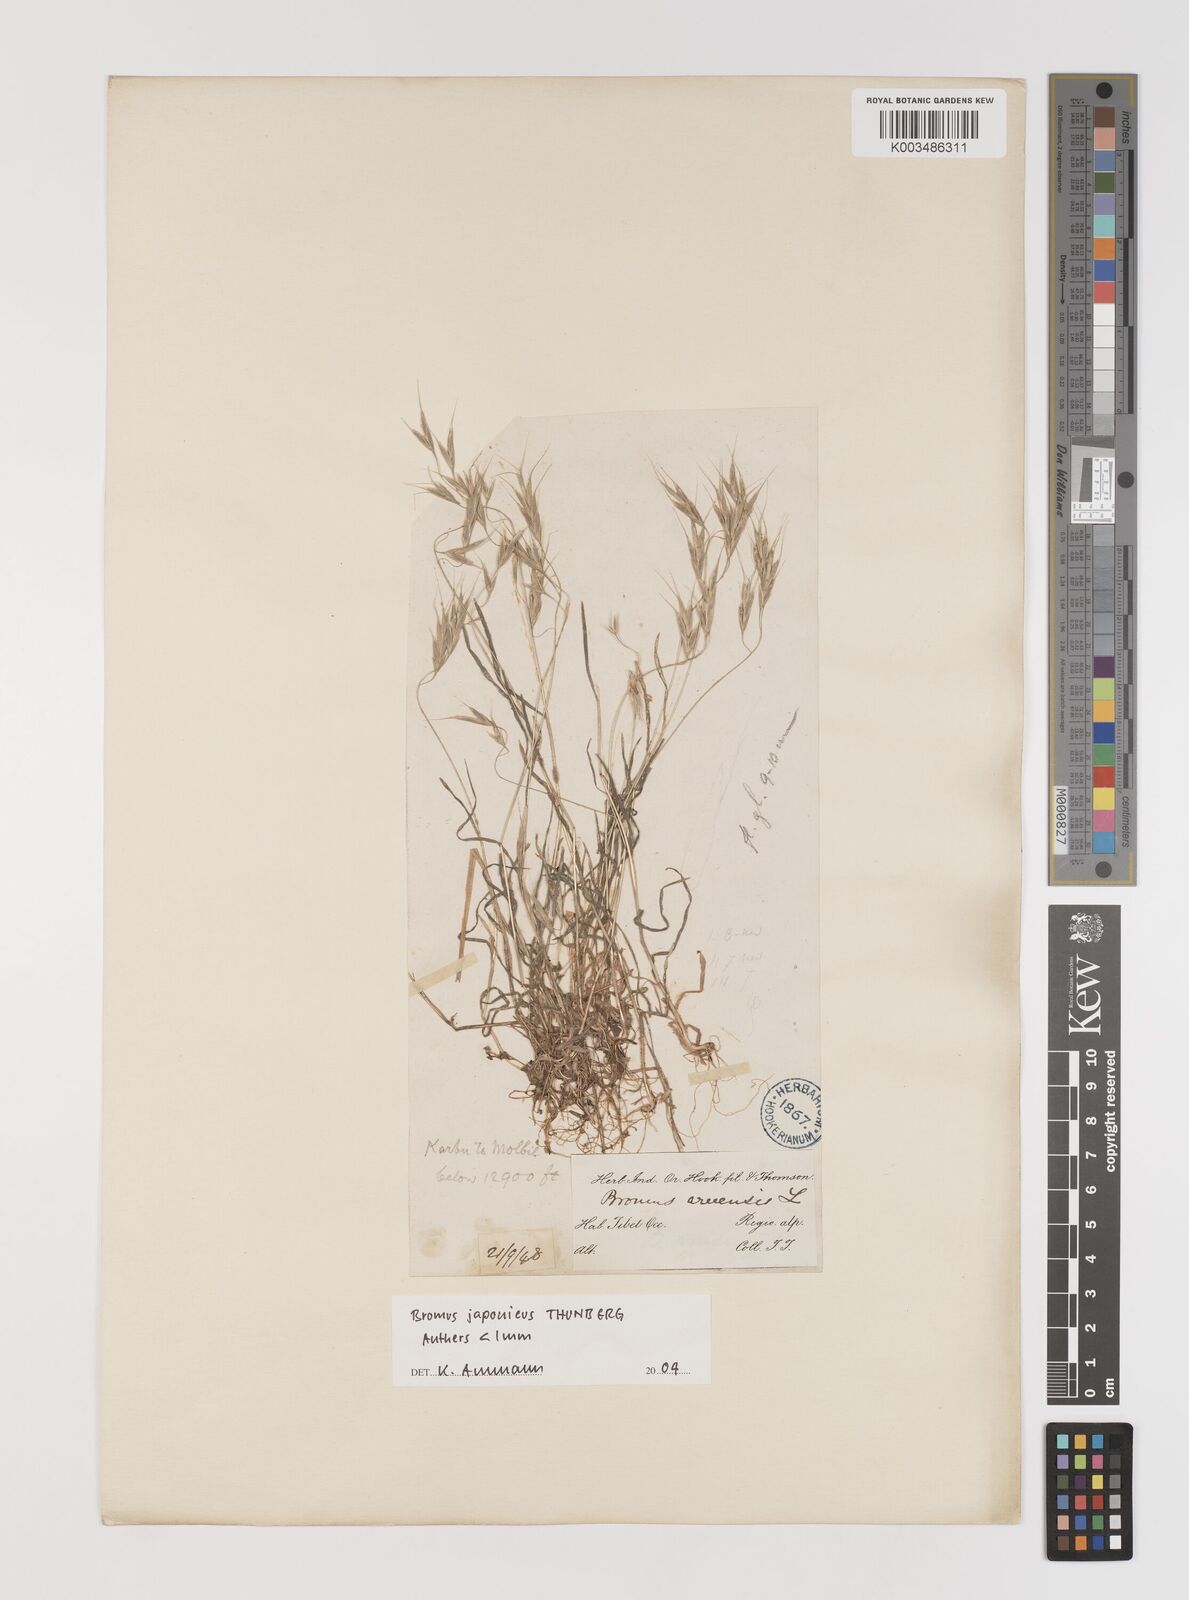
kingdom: Plantae
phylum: Tracheophyta
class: Liliopsida
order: Poales
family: Poaceae
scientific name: Poaceae
